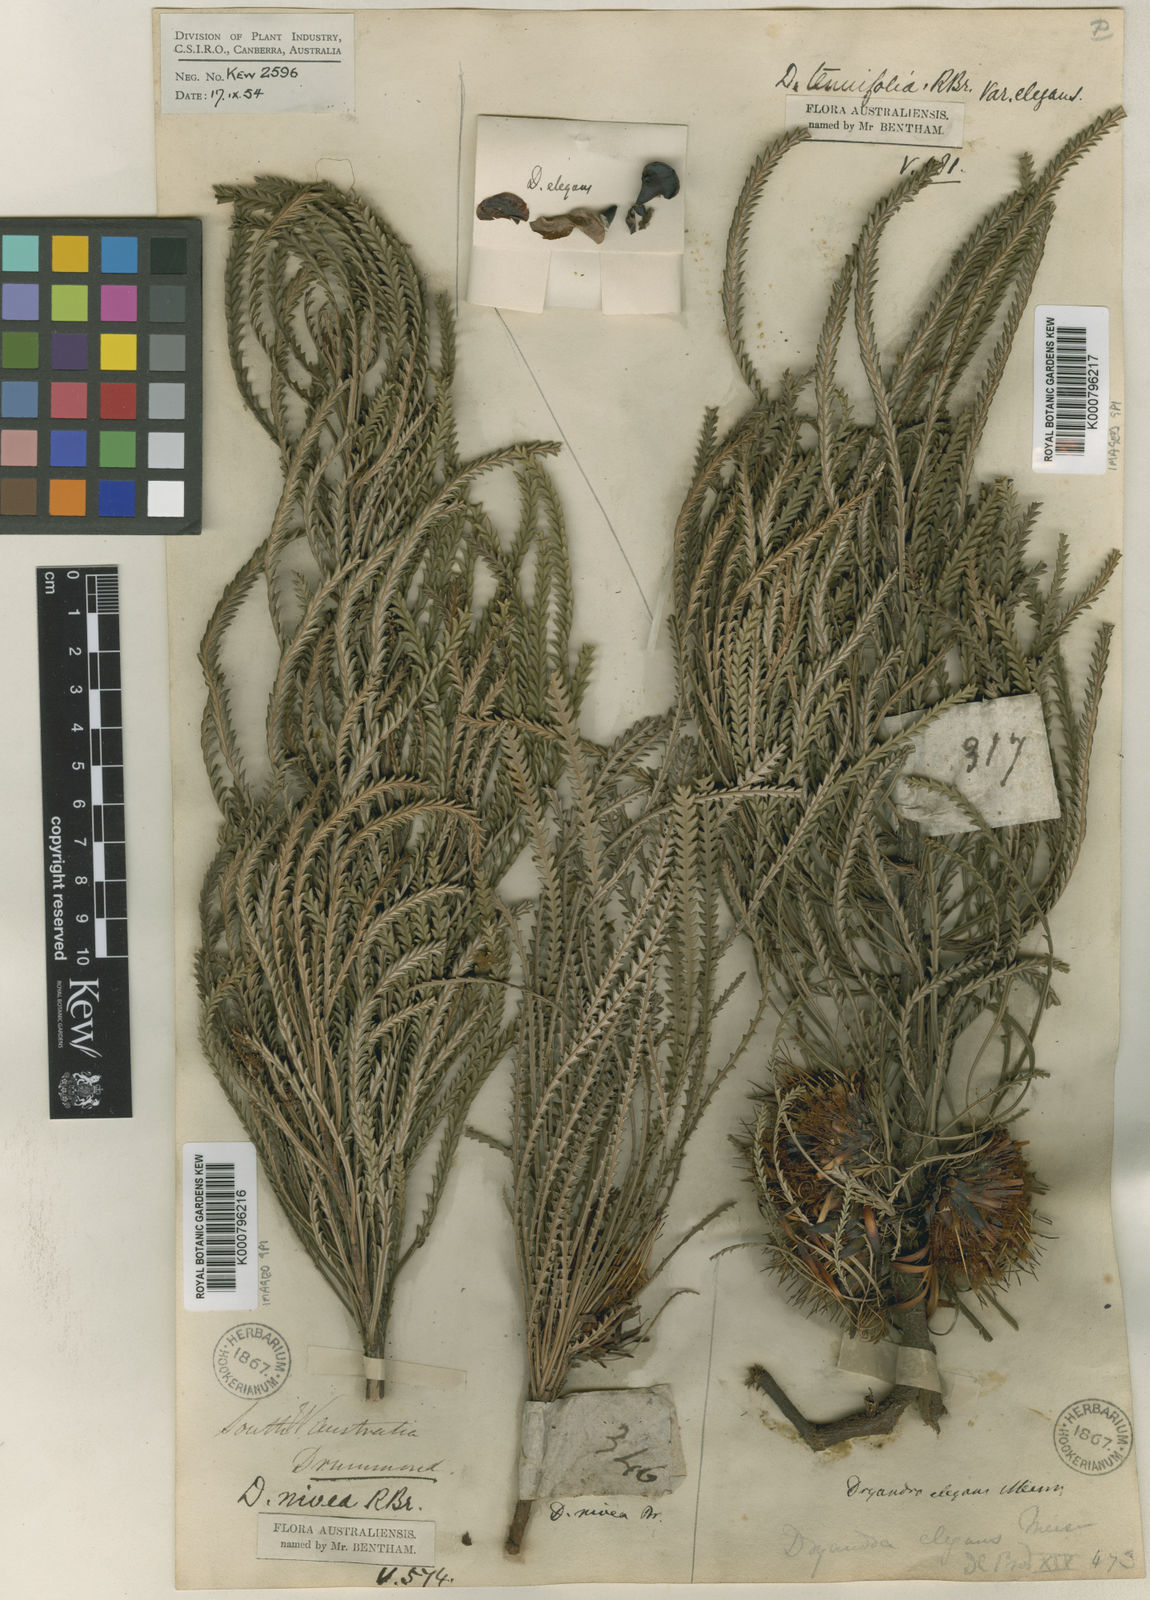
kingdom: Plantae
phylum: Tracheophyta
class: Magnoliopsida
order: Proteales
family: Proteaceae
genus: Banksia
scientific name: Banksia tenuis
